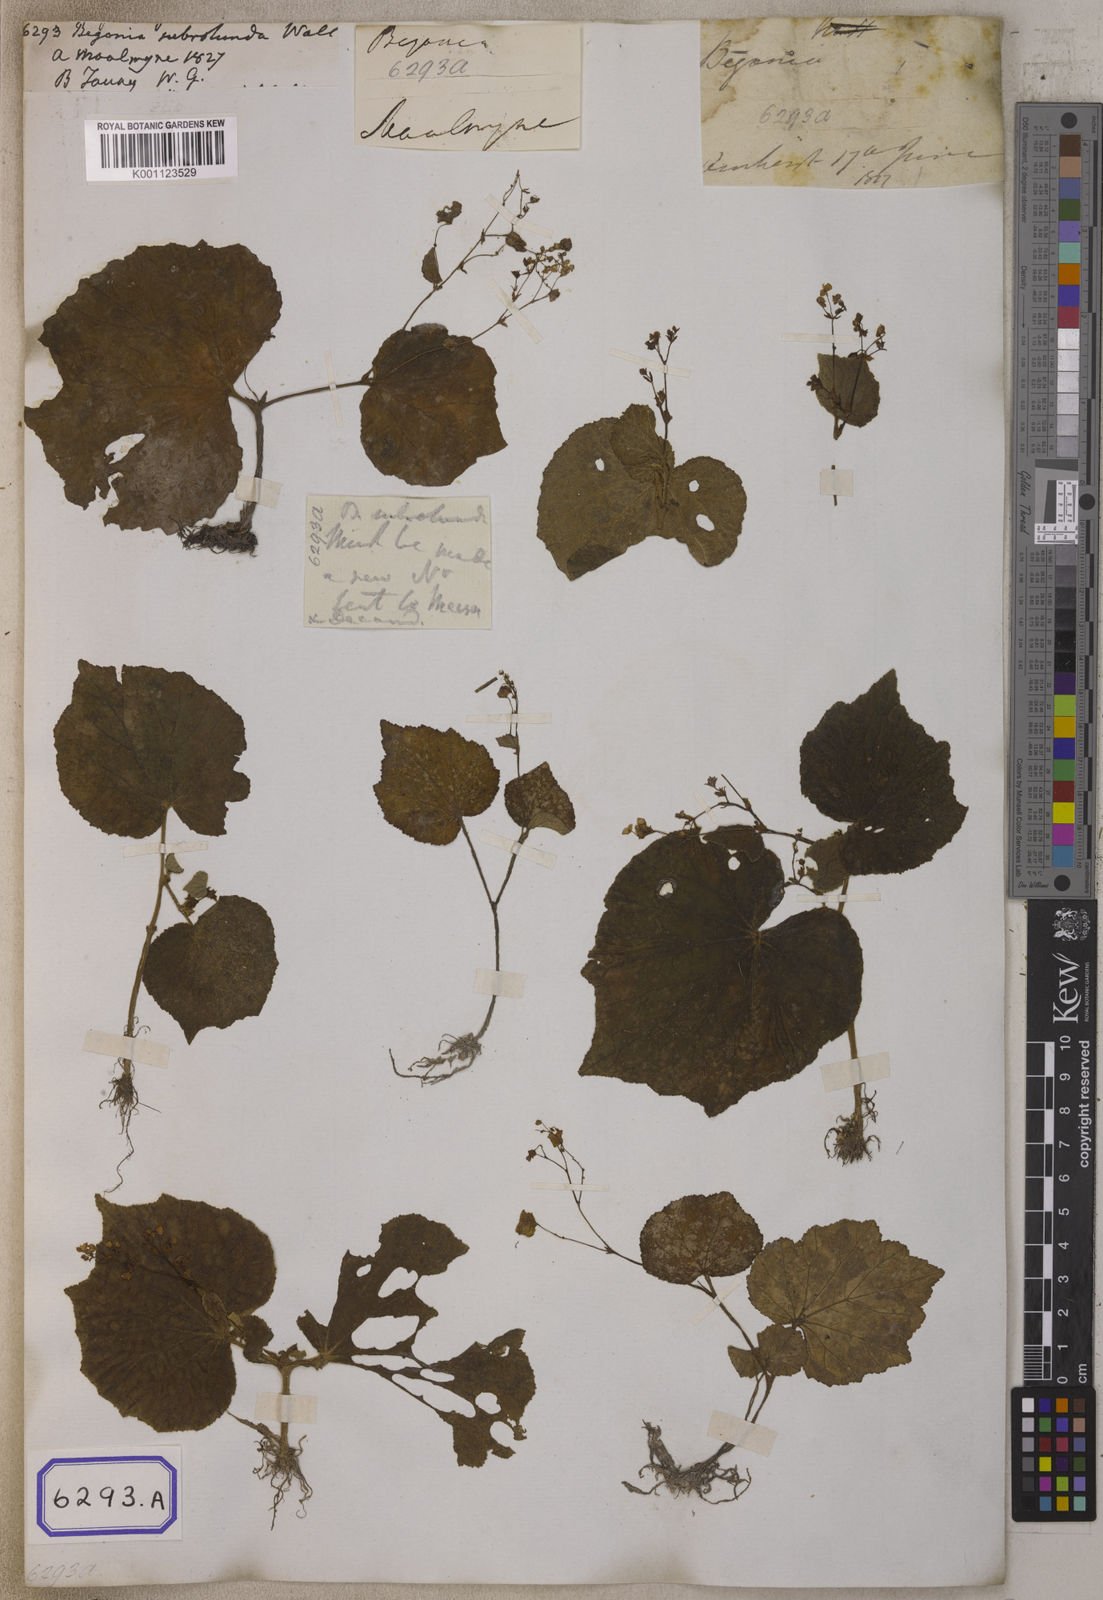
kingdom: Plantae
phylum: Tracheophyta
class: Magnoliopsida
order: Cucurbitales
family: Begoniaceae
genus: Begonia
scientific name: Begonia sinuata
